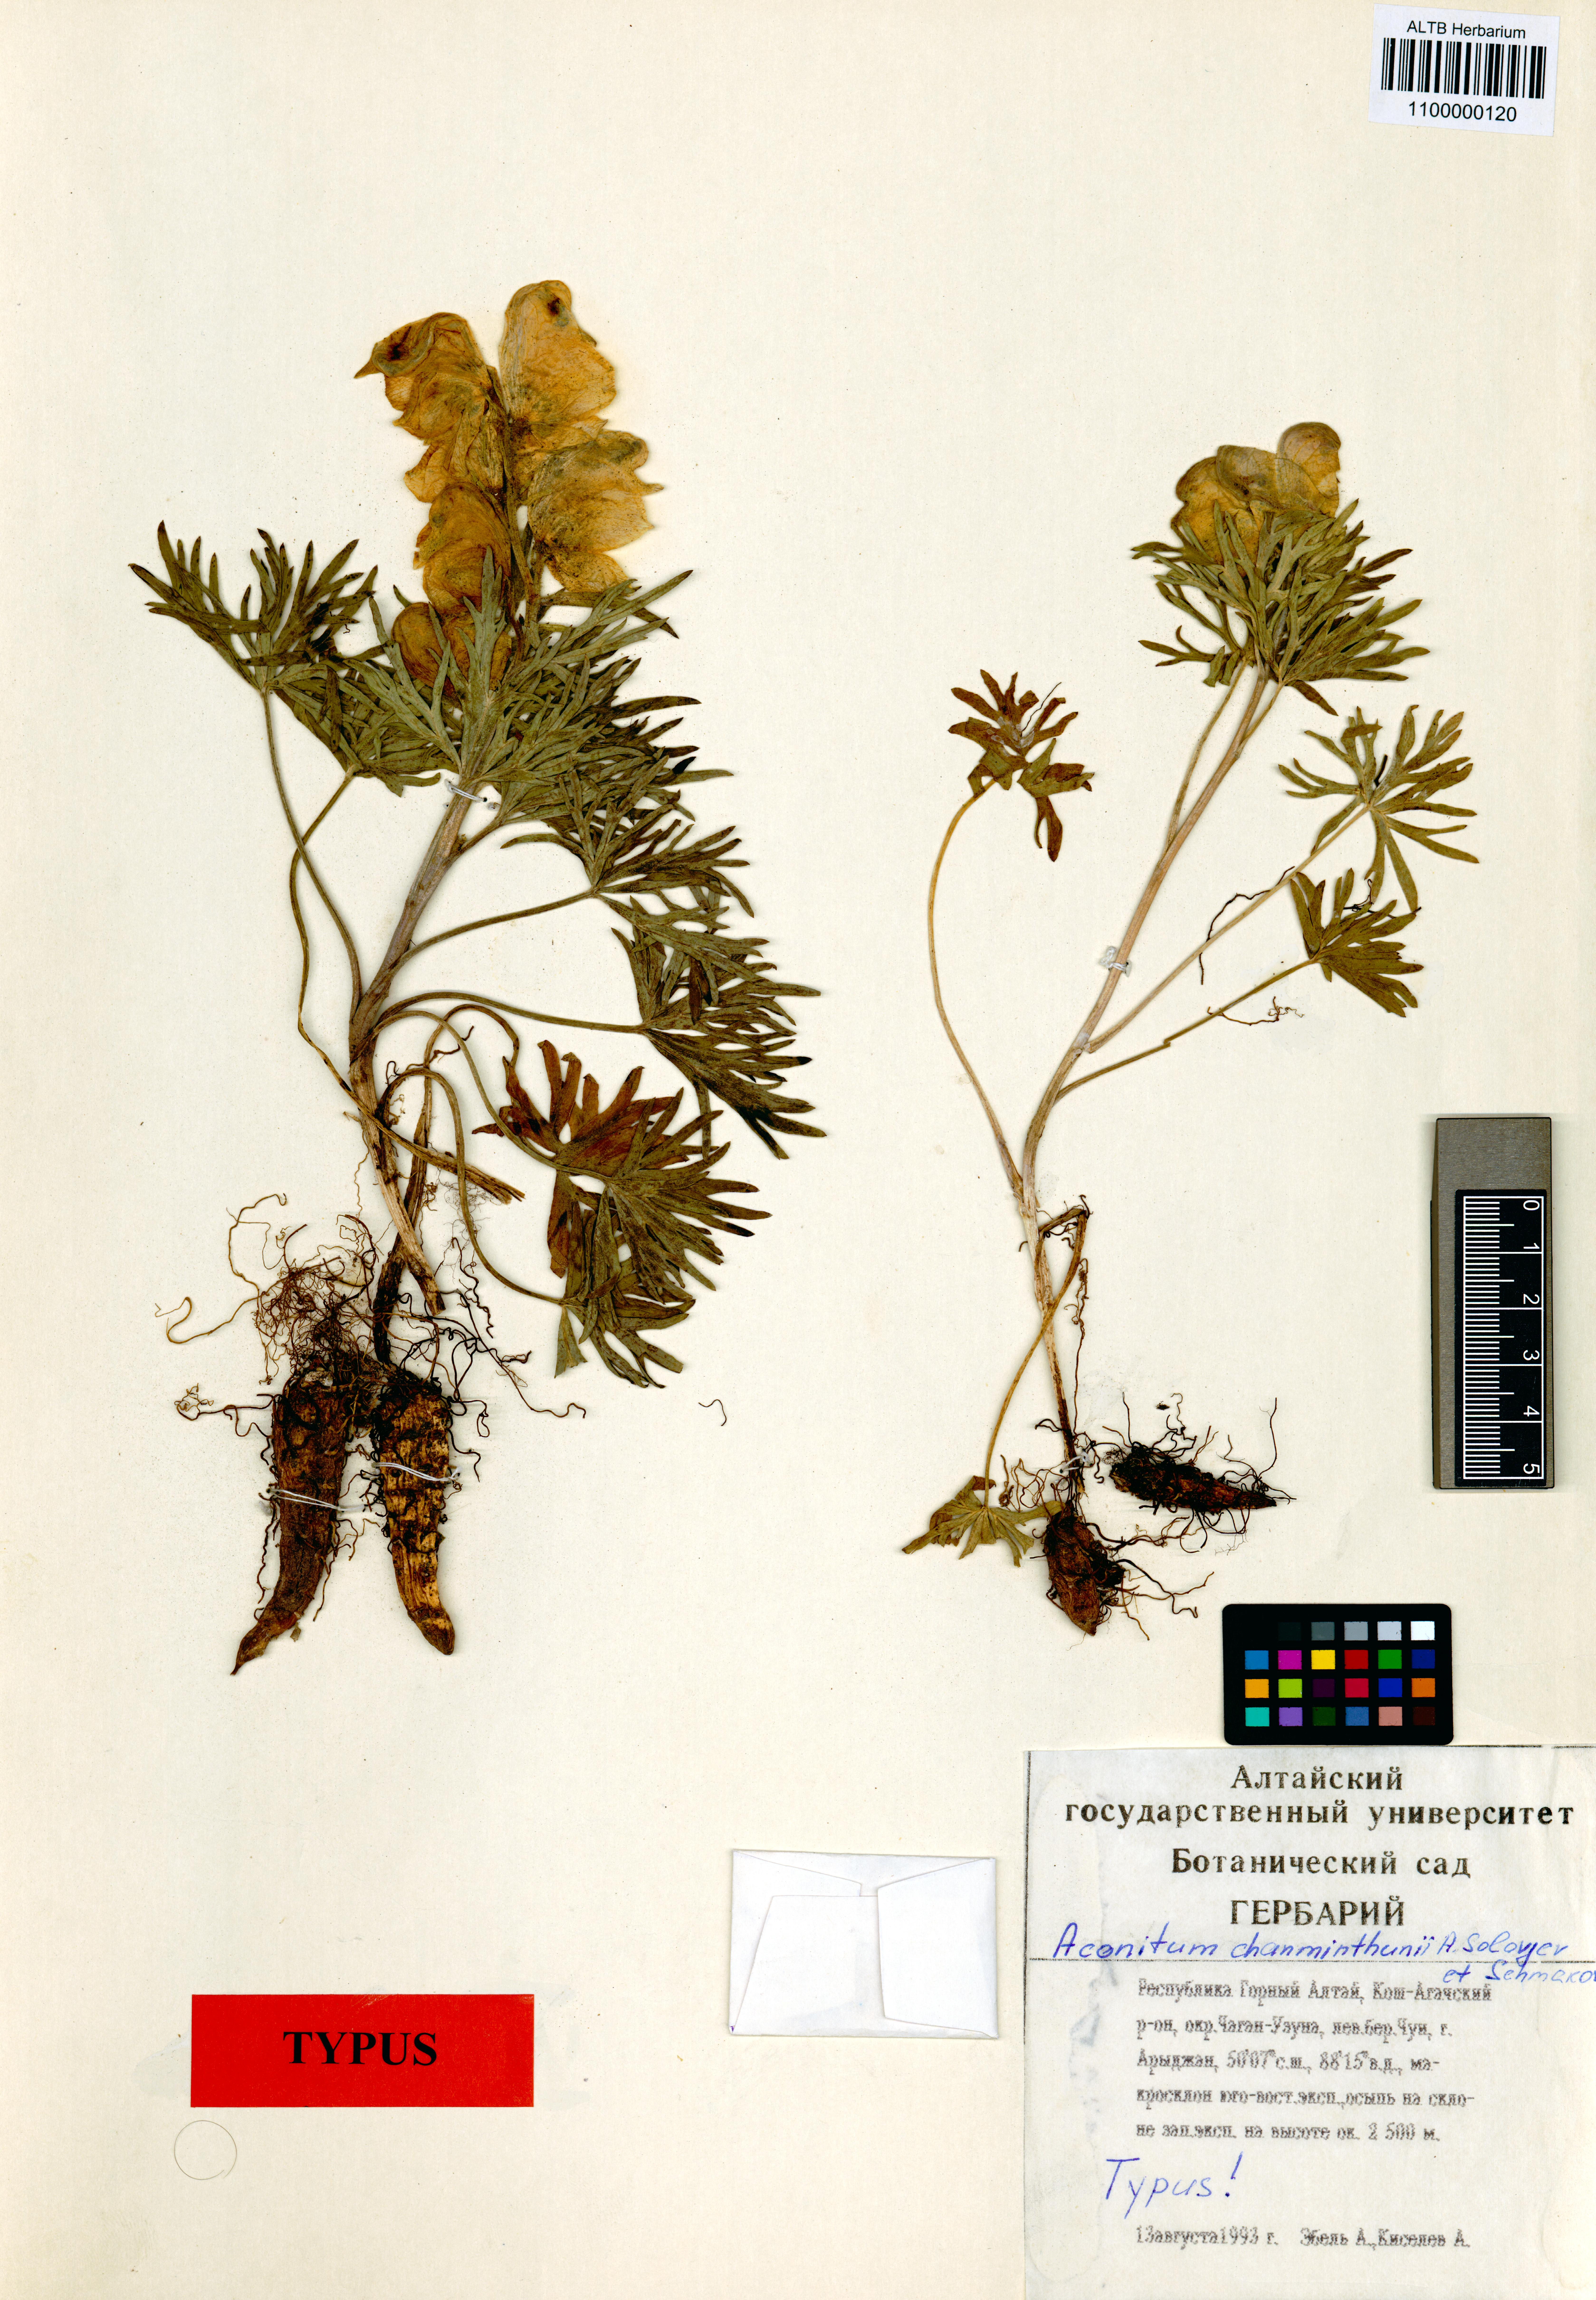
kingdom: Plantae
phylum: Tracheophyta
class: Magnoliopsida
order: Ranunculales
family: Ranunculaceae
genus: Aconitum
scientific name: Aconitum khanminthunii
